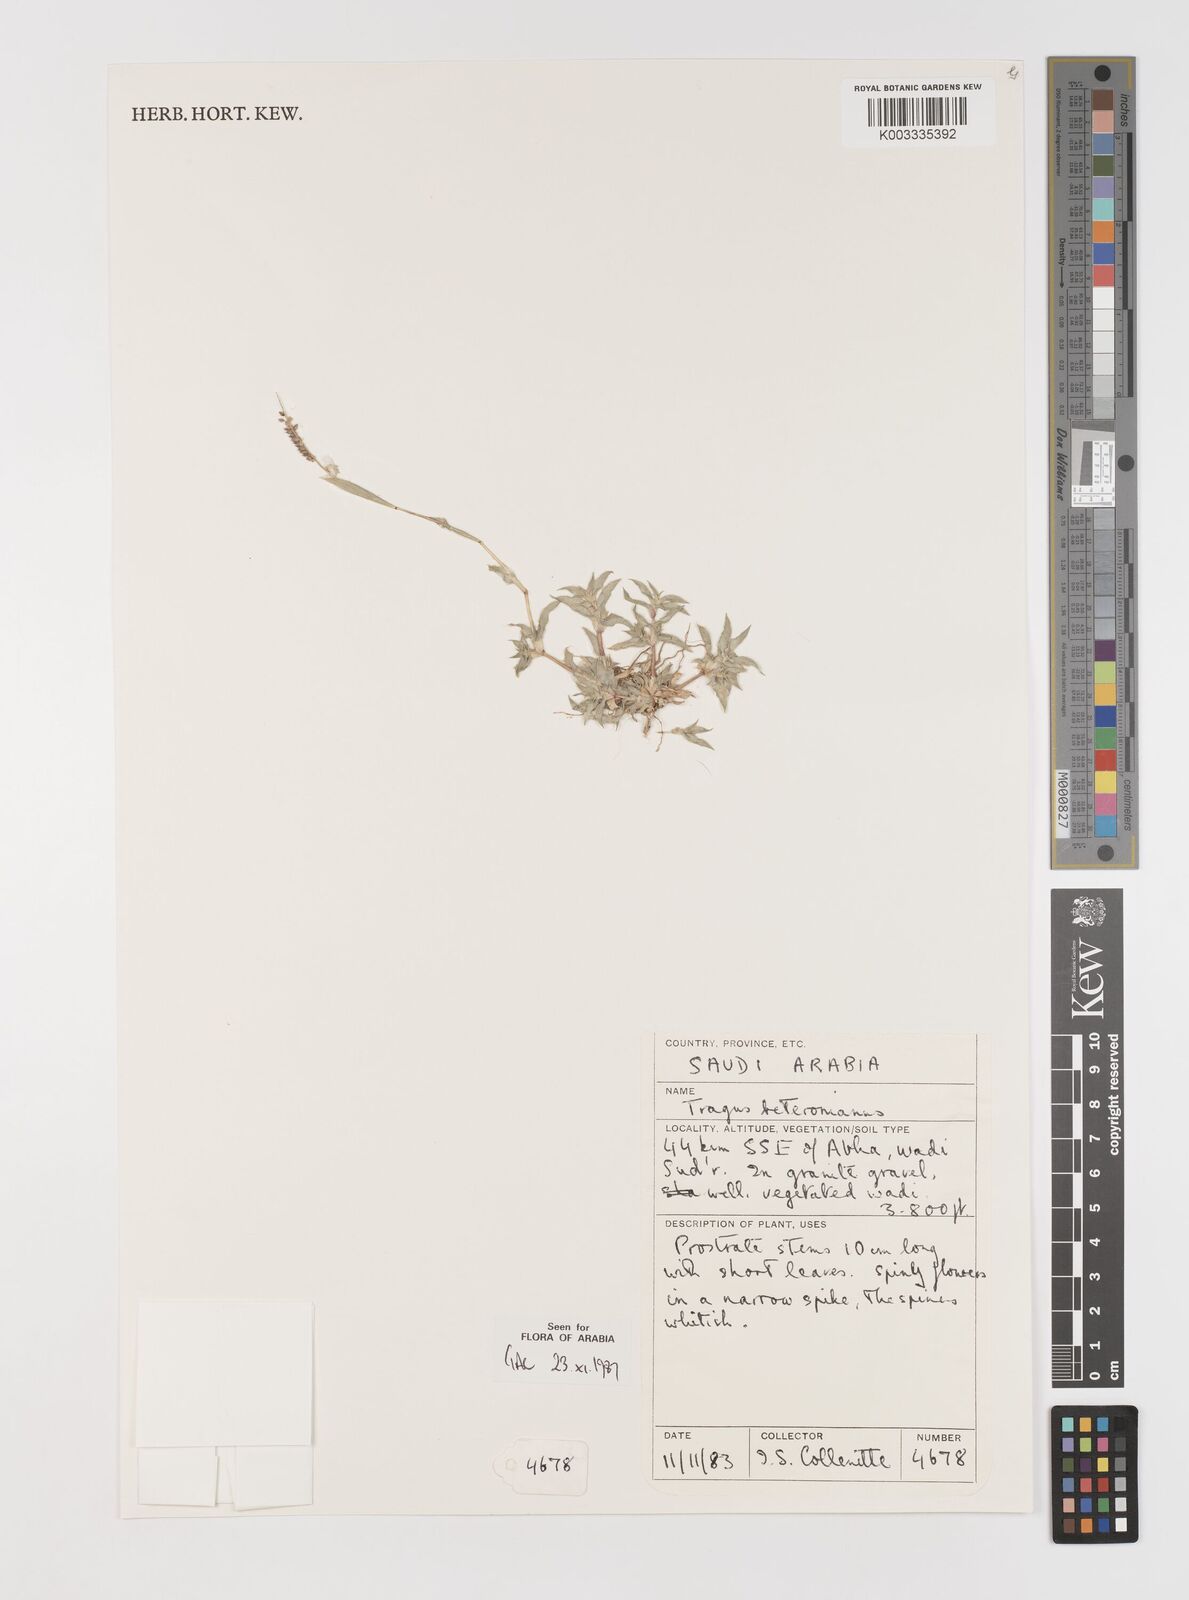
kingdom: Plantae
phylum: Tracheophyta
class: Liliopsida
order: Poales
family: Poaceae
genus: Tragus
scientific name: Tragus berteronianus
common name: African bur-grass
